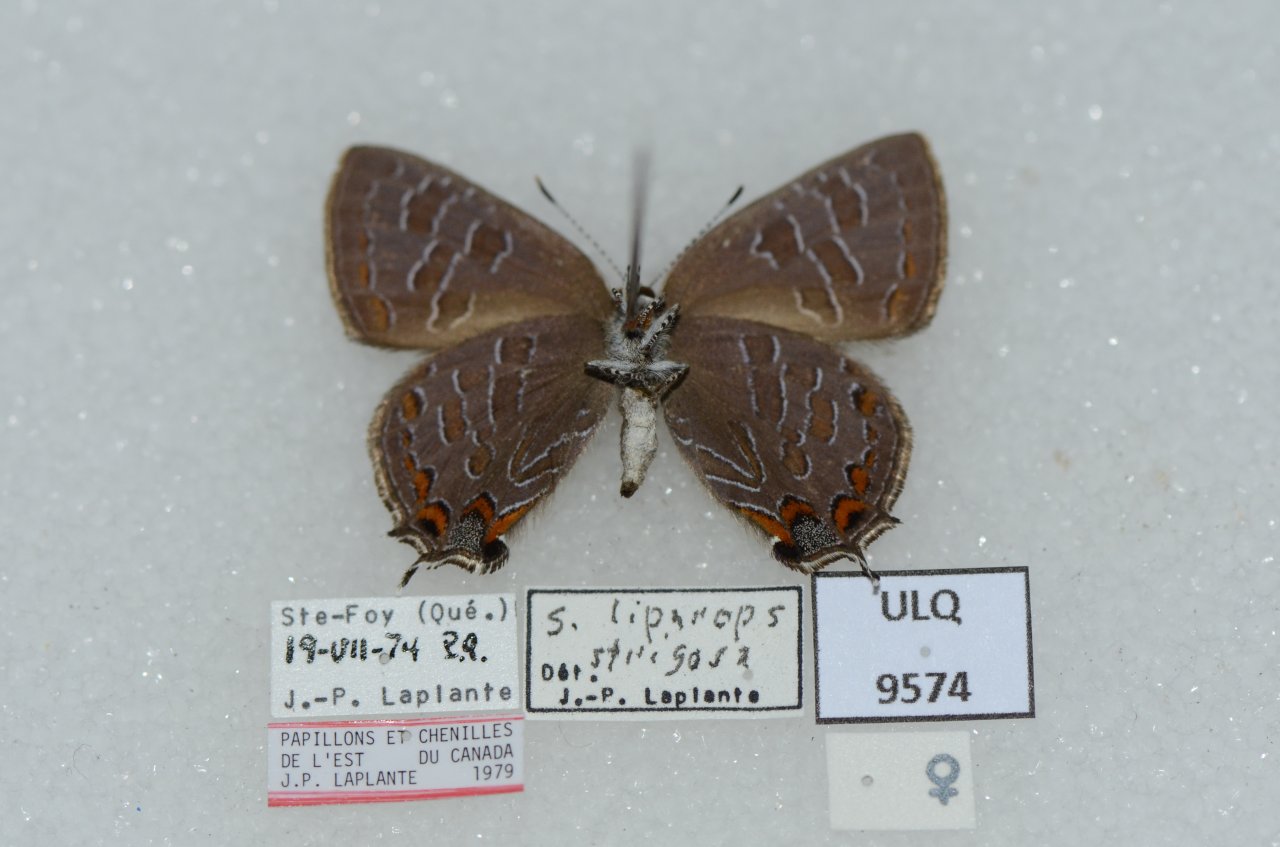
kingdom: Animalia
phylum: Arthropoda
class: Insecta
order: Lepidoptera
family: Lycaenidae
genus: Satyrium
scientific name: Satyrium liparops
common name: Striped Hairstreak
